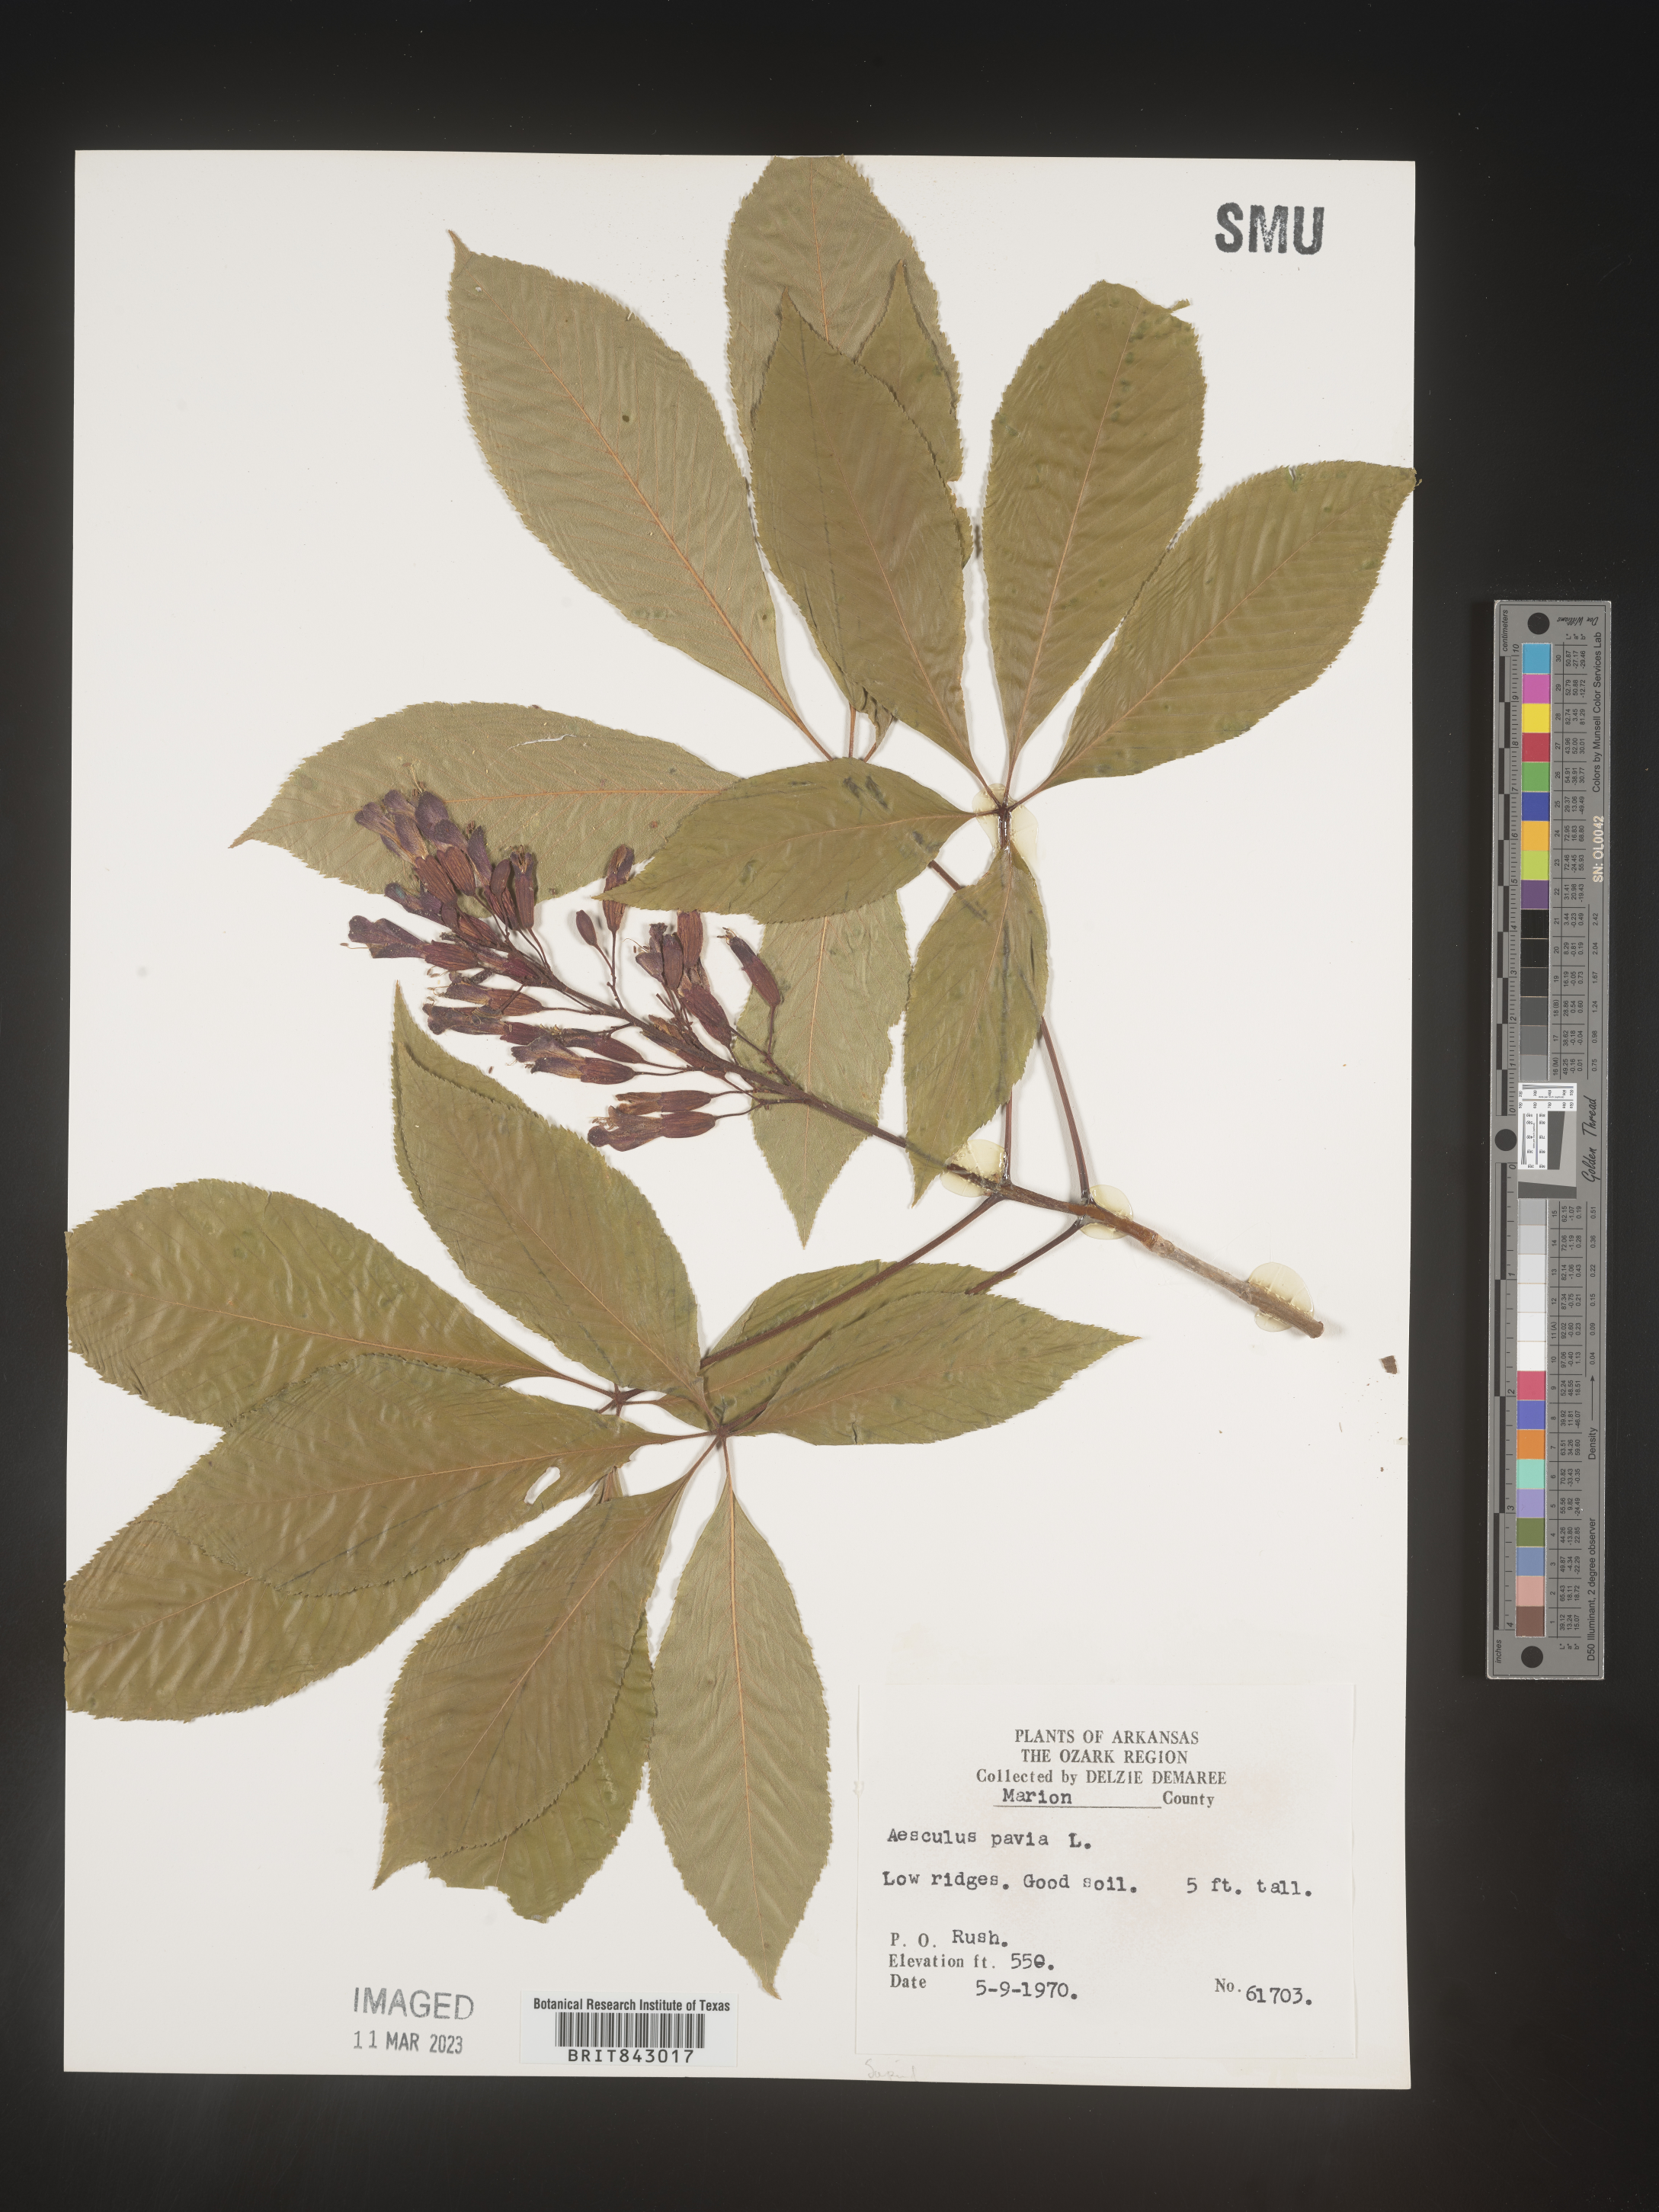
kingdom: Plantae
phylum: Tracheophyta
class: Magnoliopsida
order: Sapindales
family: Sapindaceae
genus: Aesculus
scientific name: Aesculus pavia
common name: Red buckeye
